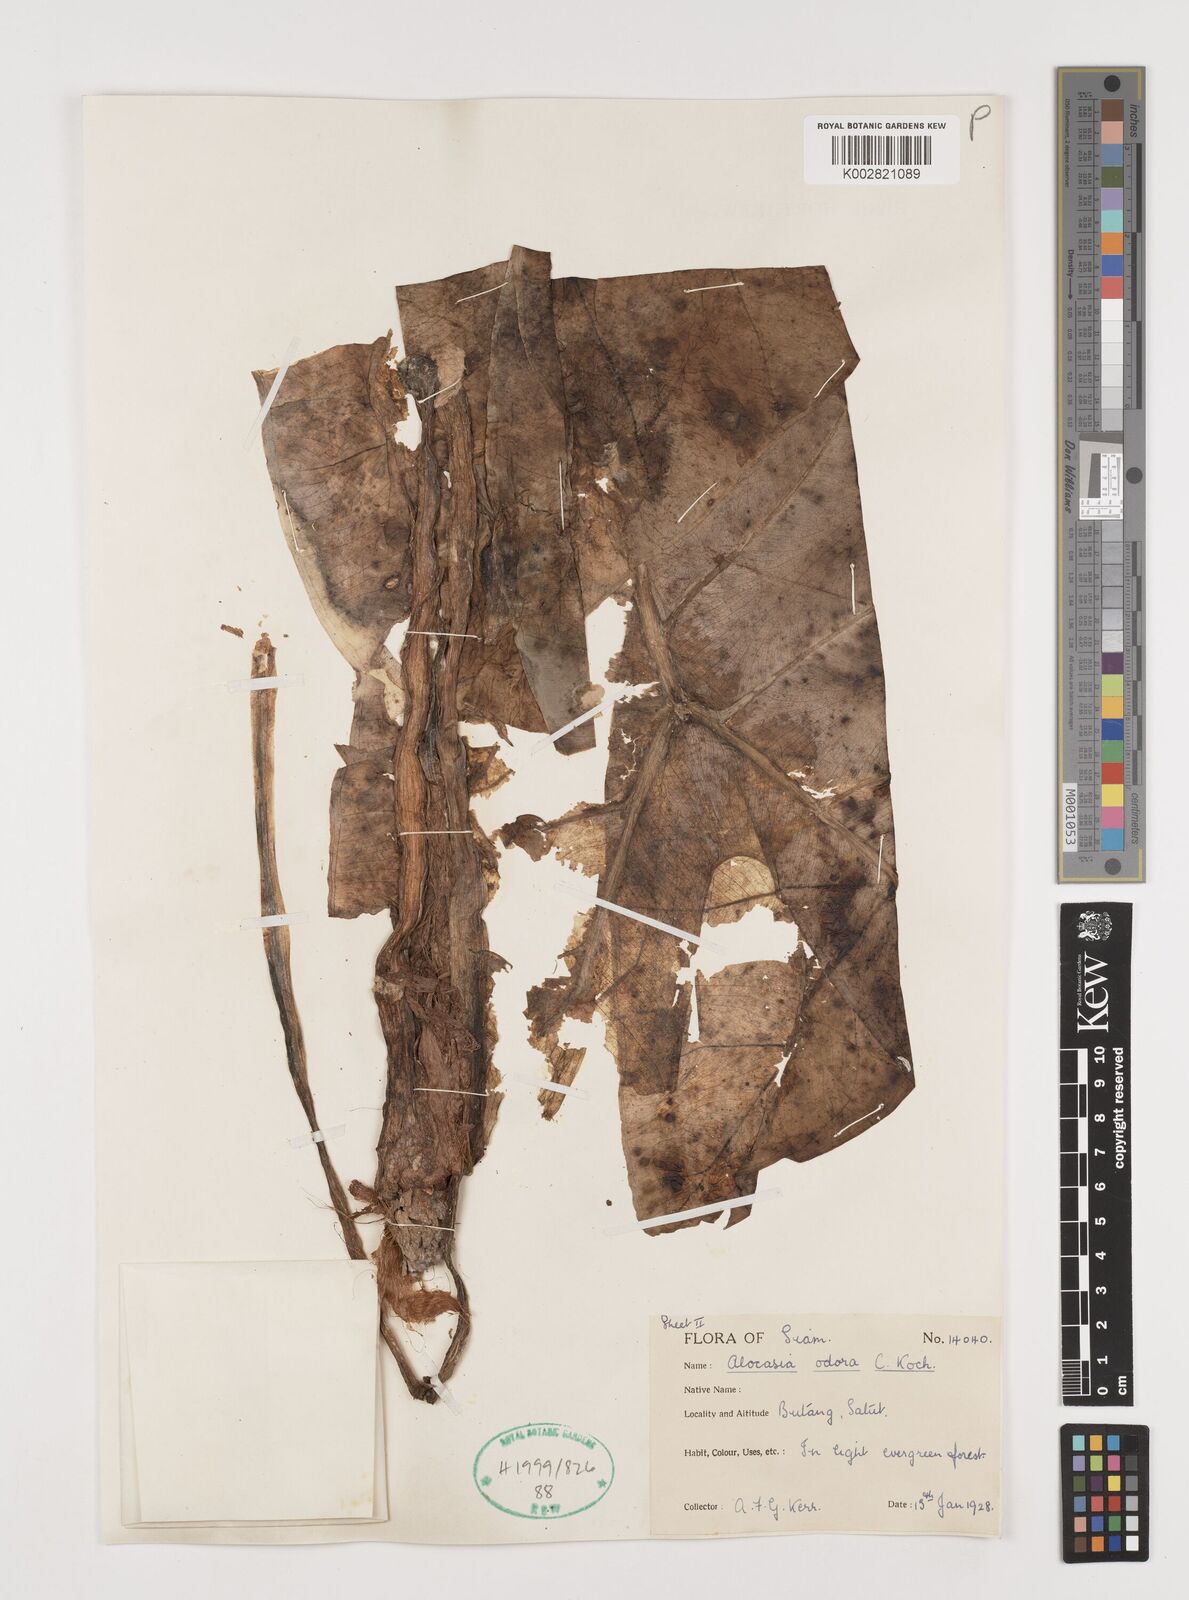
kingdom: Plantae
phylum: Tracheophyta
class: Liliopsida
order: Alismatales
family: Araceae
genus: Alocasia
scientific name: Alocasia
